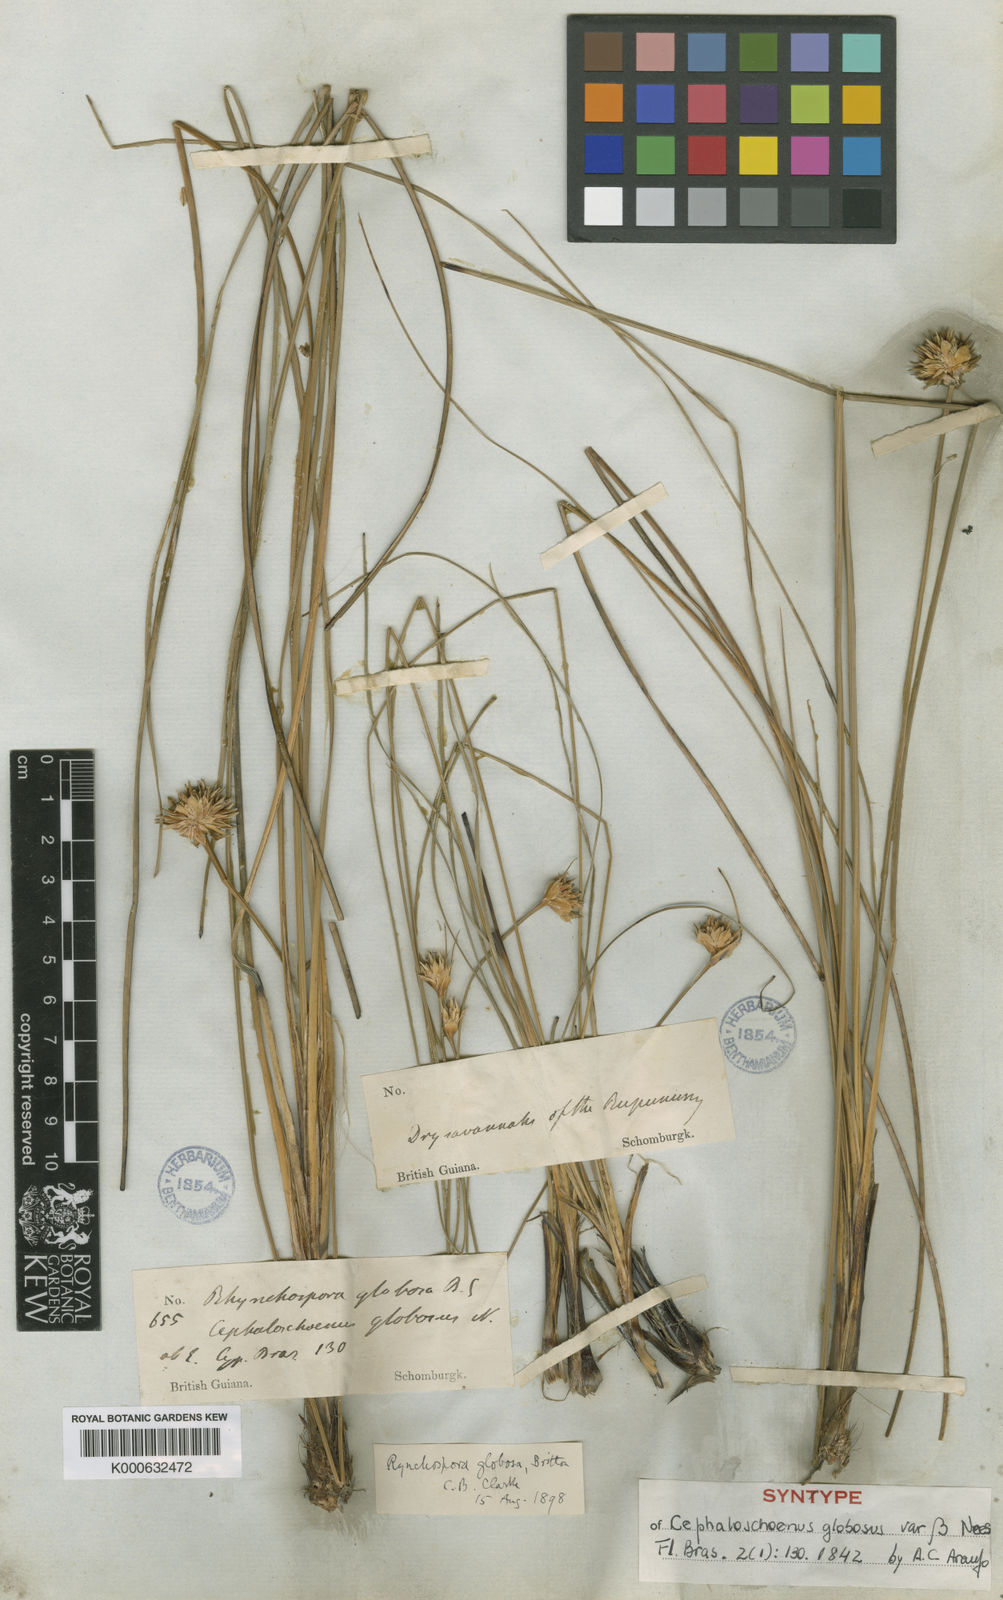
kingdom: Plantae
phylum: Tracheophyta
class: Liliopsida
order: Poales
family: Cyperaceae
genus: Rhynchospora
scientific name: Rhynchospora globosa
